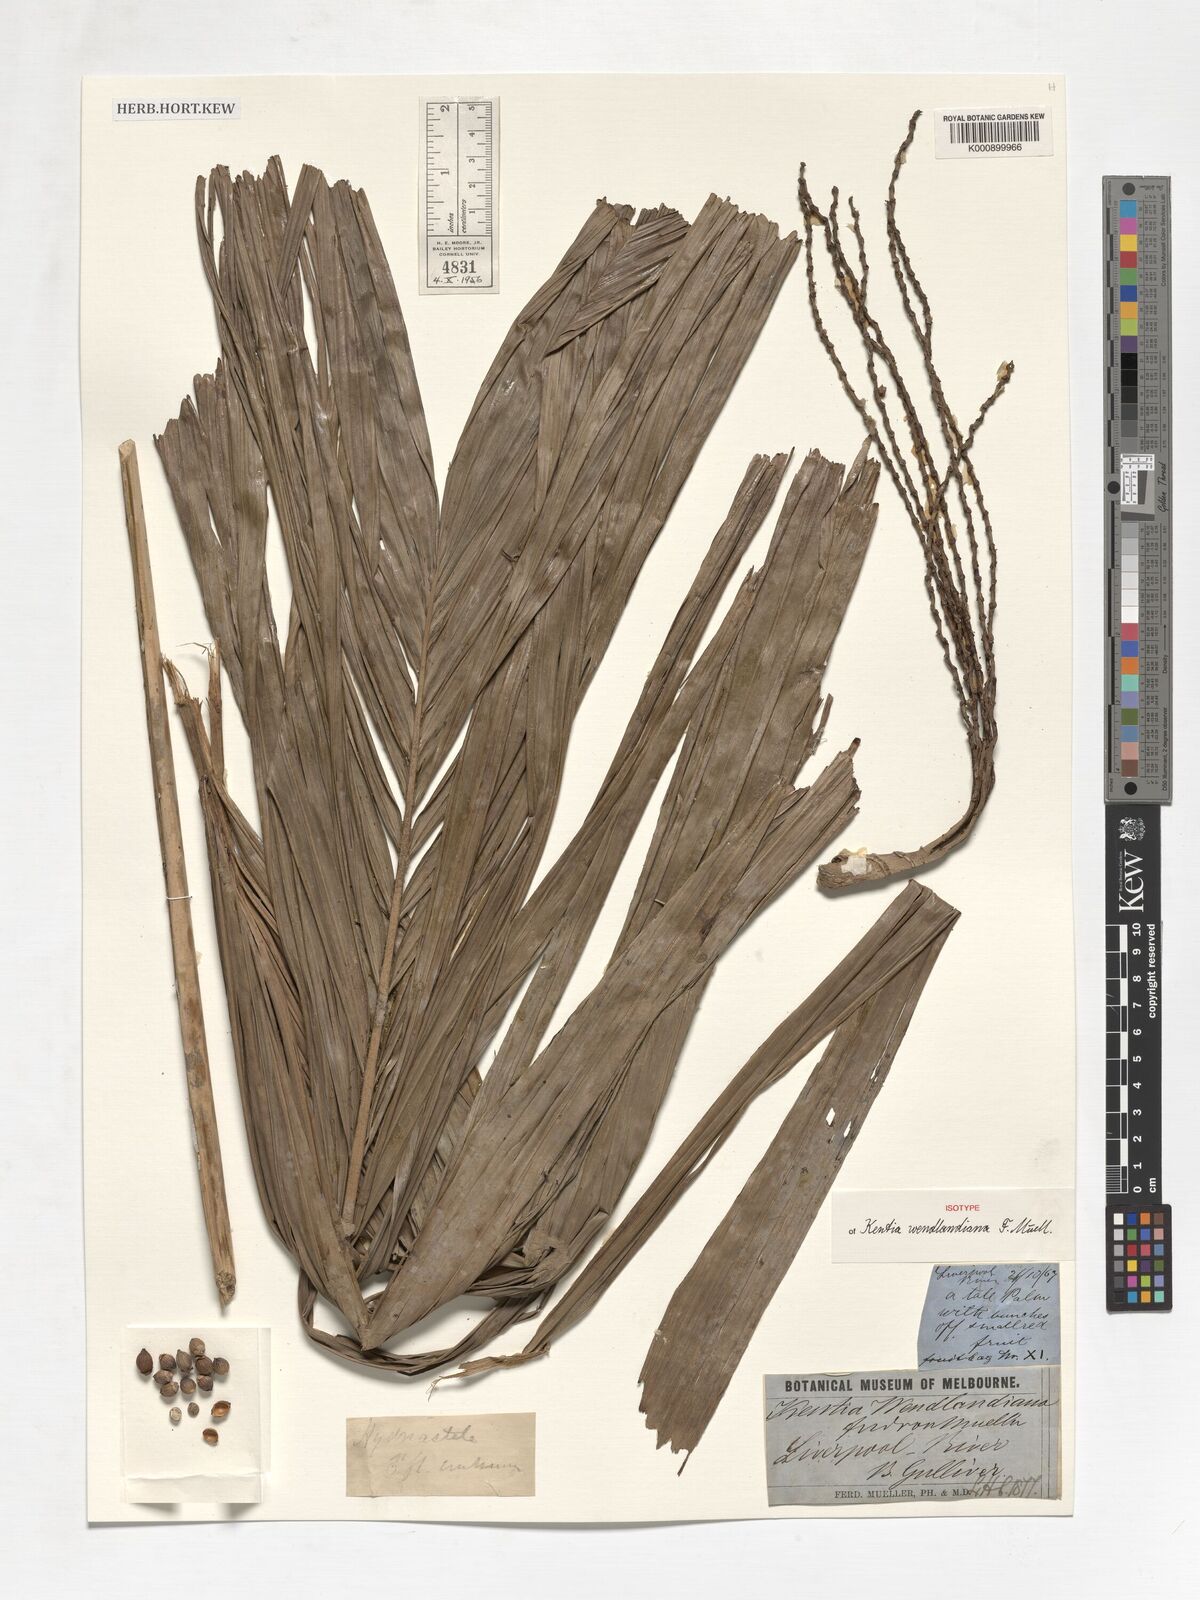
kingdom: Plantae
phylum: Tracheophyta
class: Liliopsida
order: Arecales
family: Arecaceae
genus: Hydriastele
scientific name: Hydriastele wendlandiana
